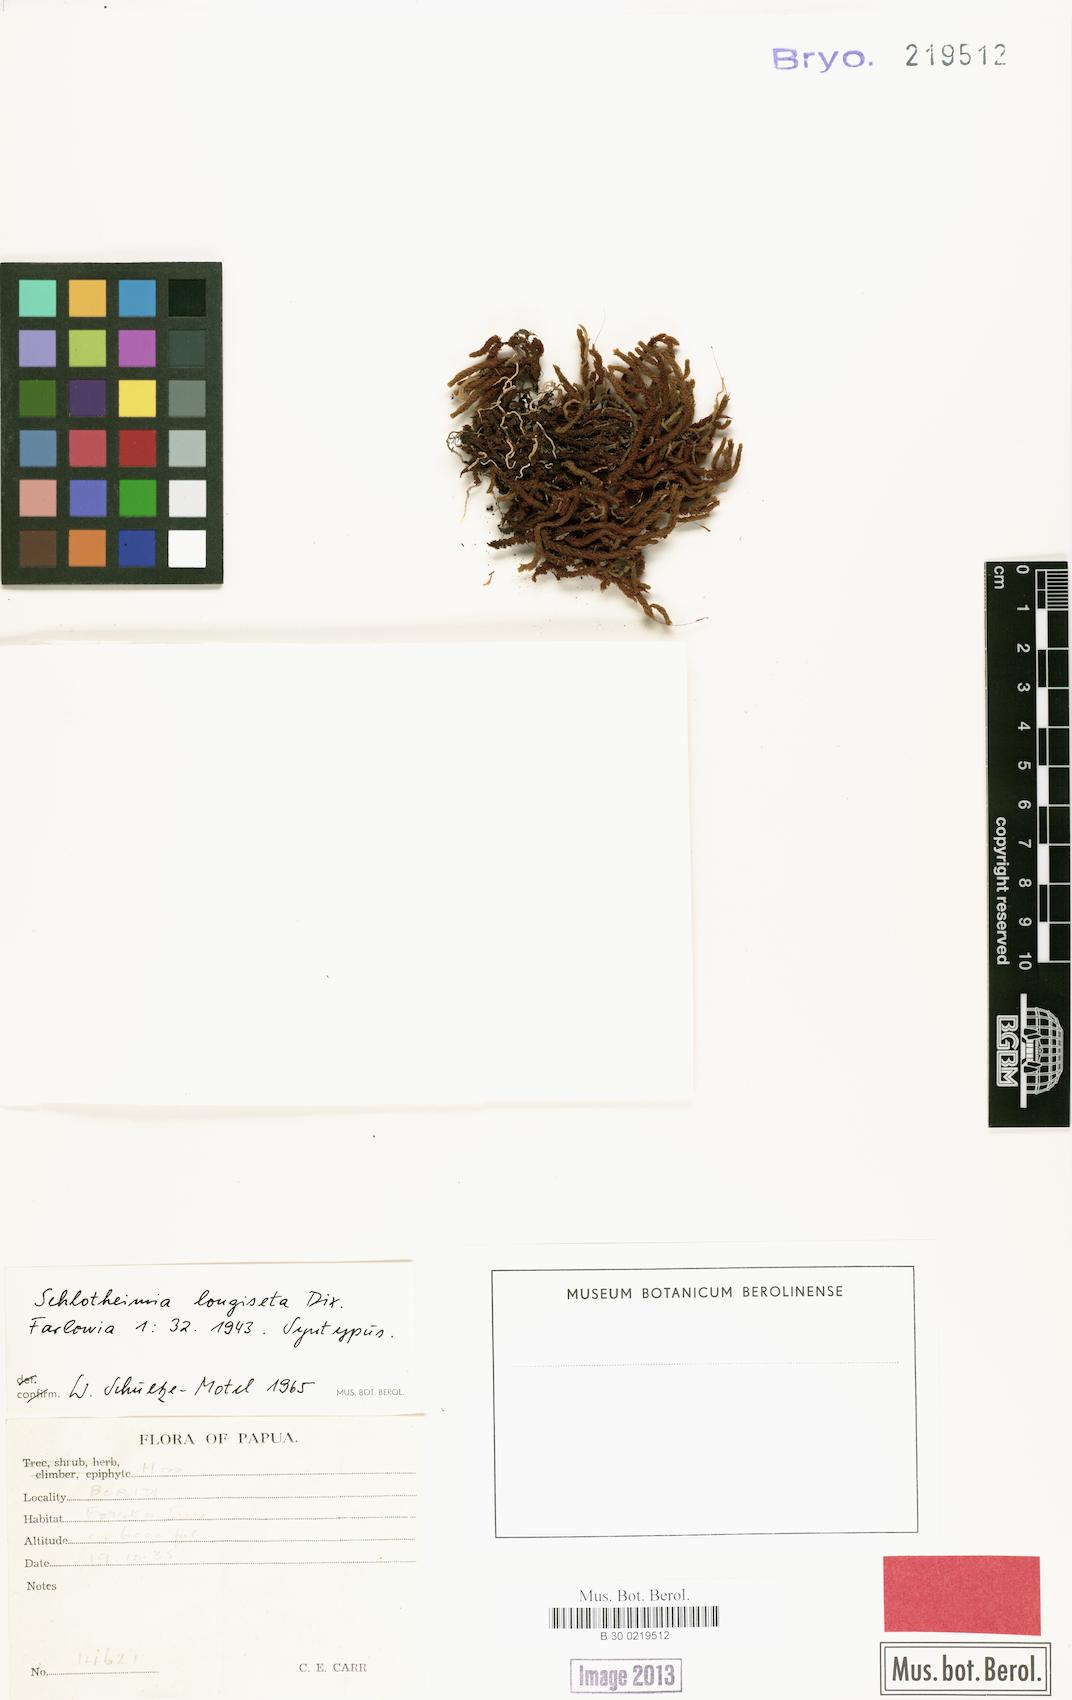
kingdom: Plantae
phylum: Bryophyta
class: Bryopsida
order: Orthotrichales
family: Orthotrichaceae
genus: Schlotheimia
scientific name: Schlotheimia macgregorii
